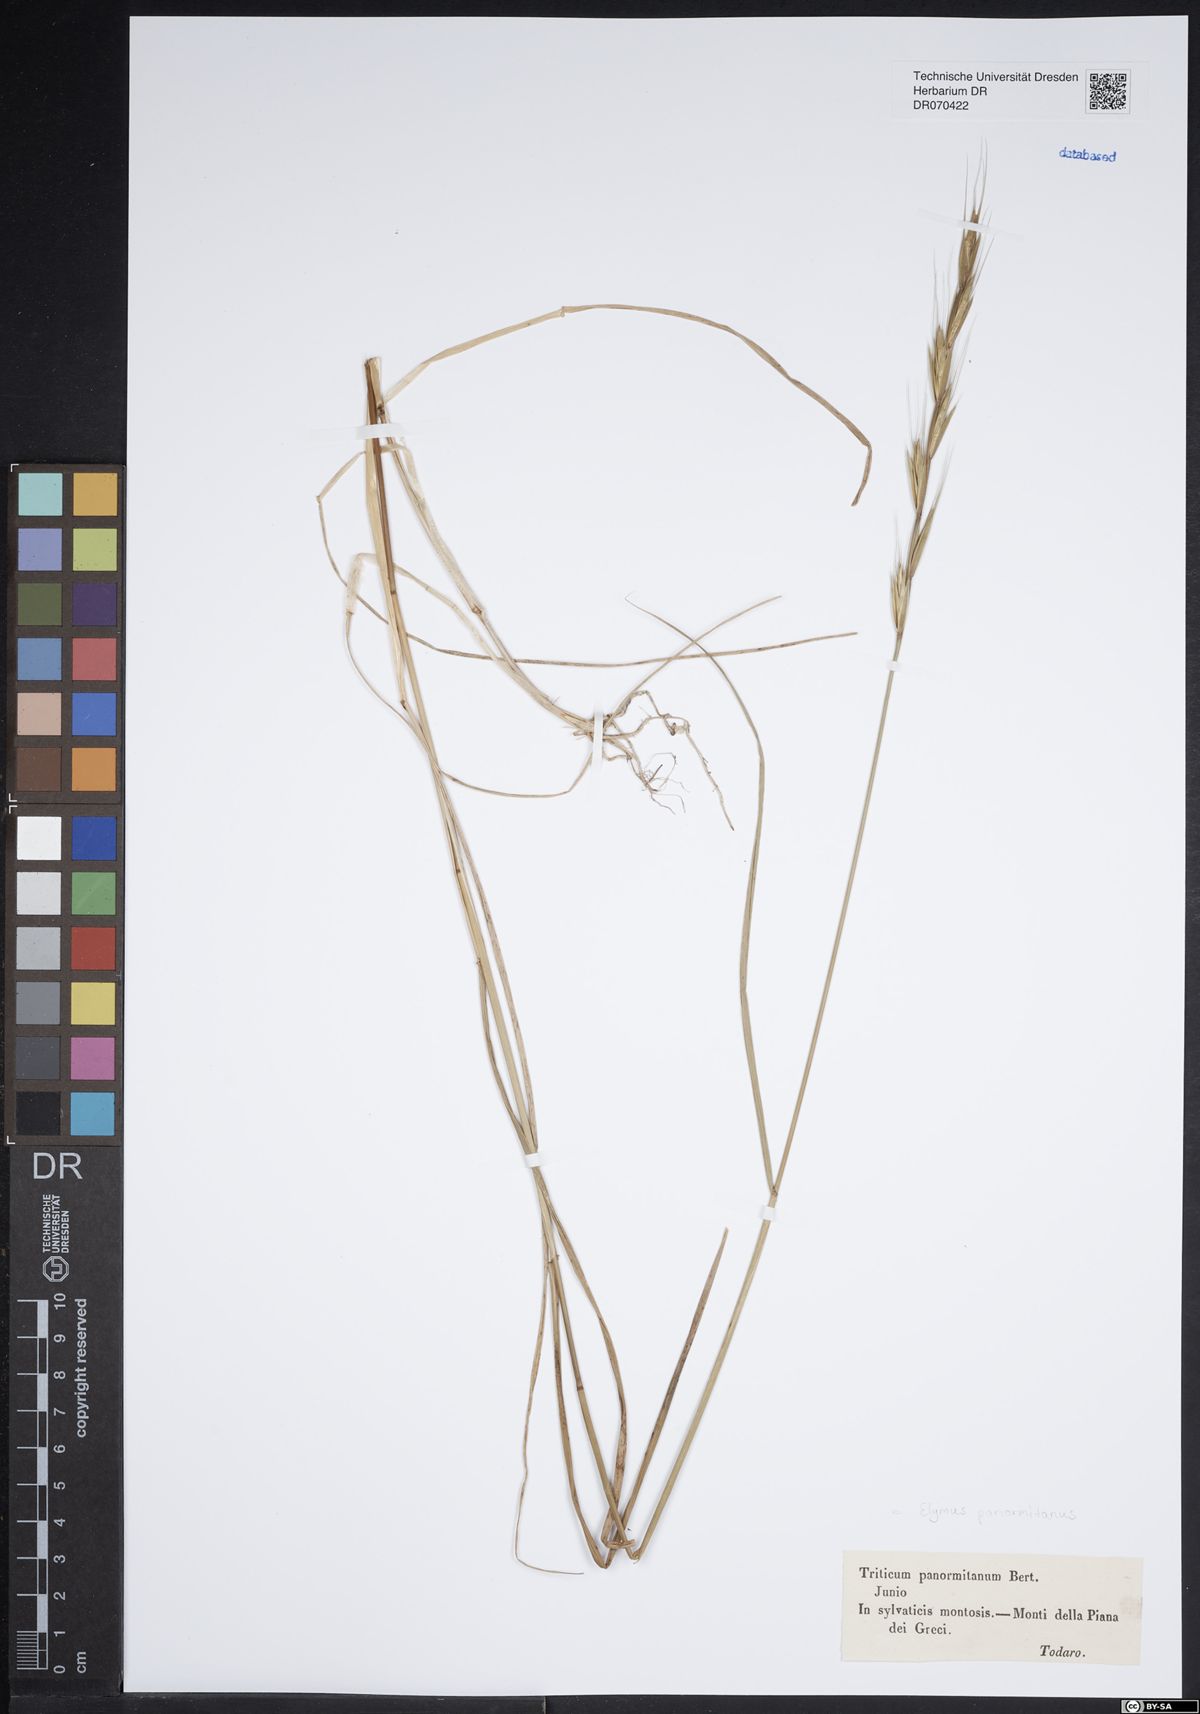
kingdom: Plantae
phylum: Tracheophyta
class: Liliopsida
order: Poales
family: Poaceae
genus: Elymus
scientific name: Elymus panormitanus
